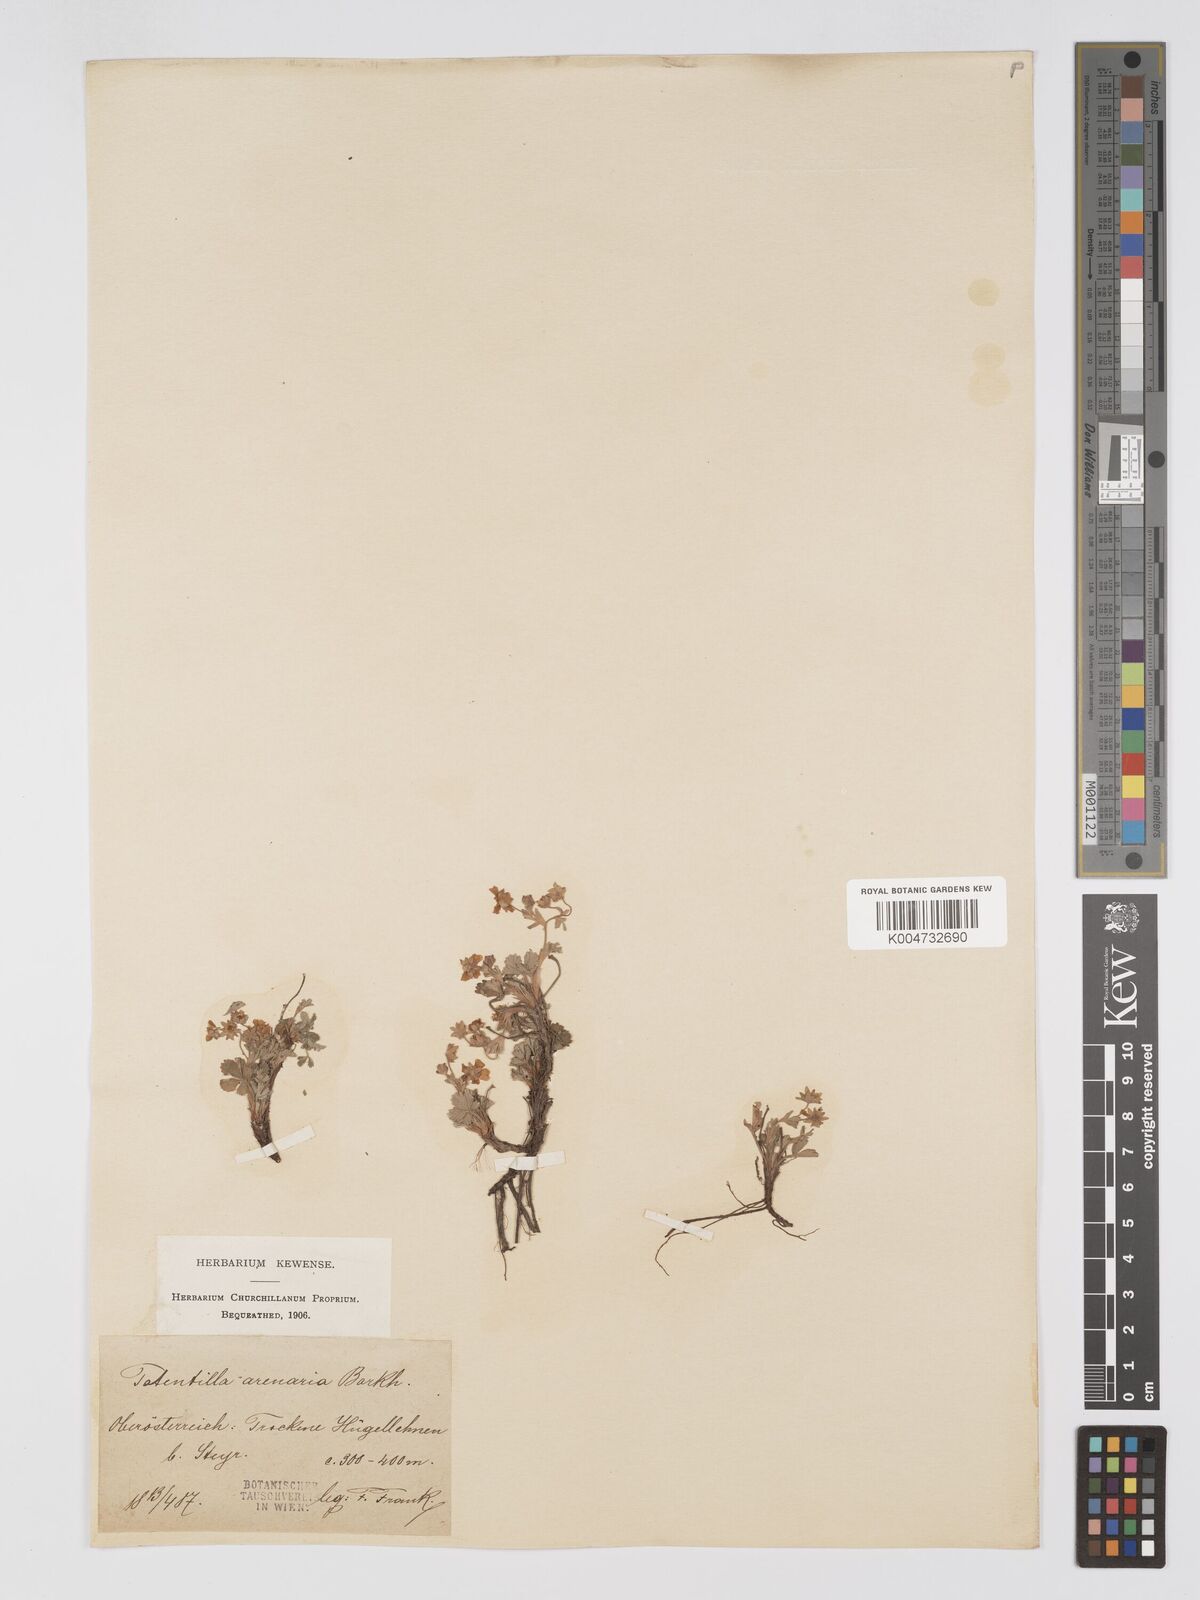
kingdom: Plantae
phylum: Tracheophyta
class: Magnoliopsida
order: Rosales
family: Rosaceae
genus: Potentilla
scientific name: Potentilla cinerea
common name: Ashy cinquefoil
